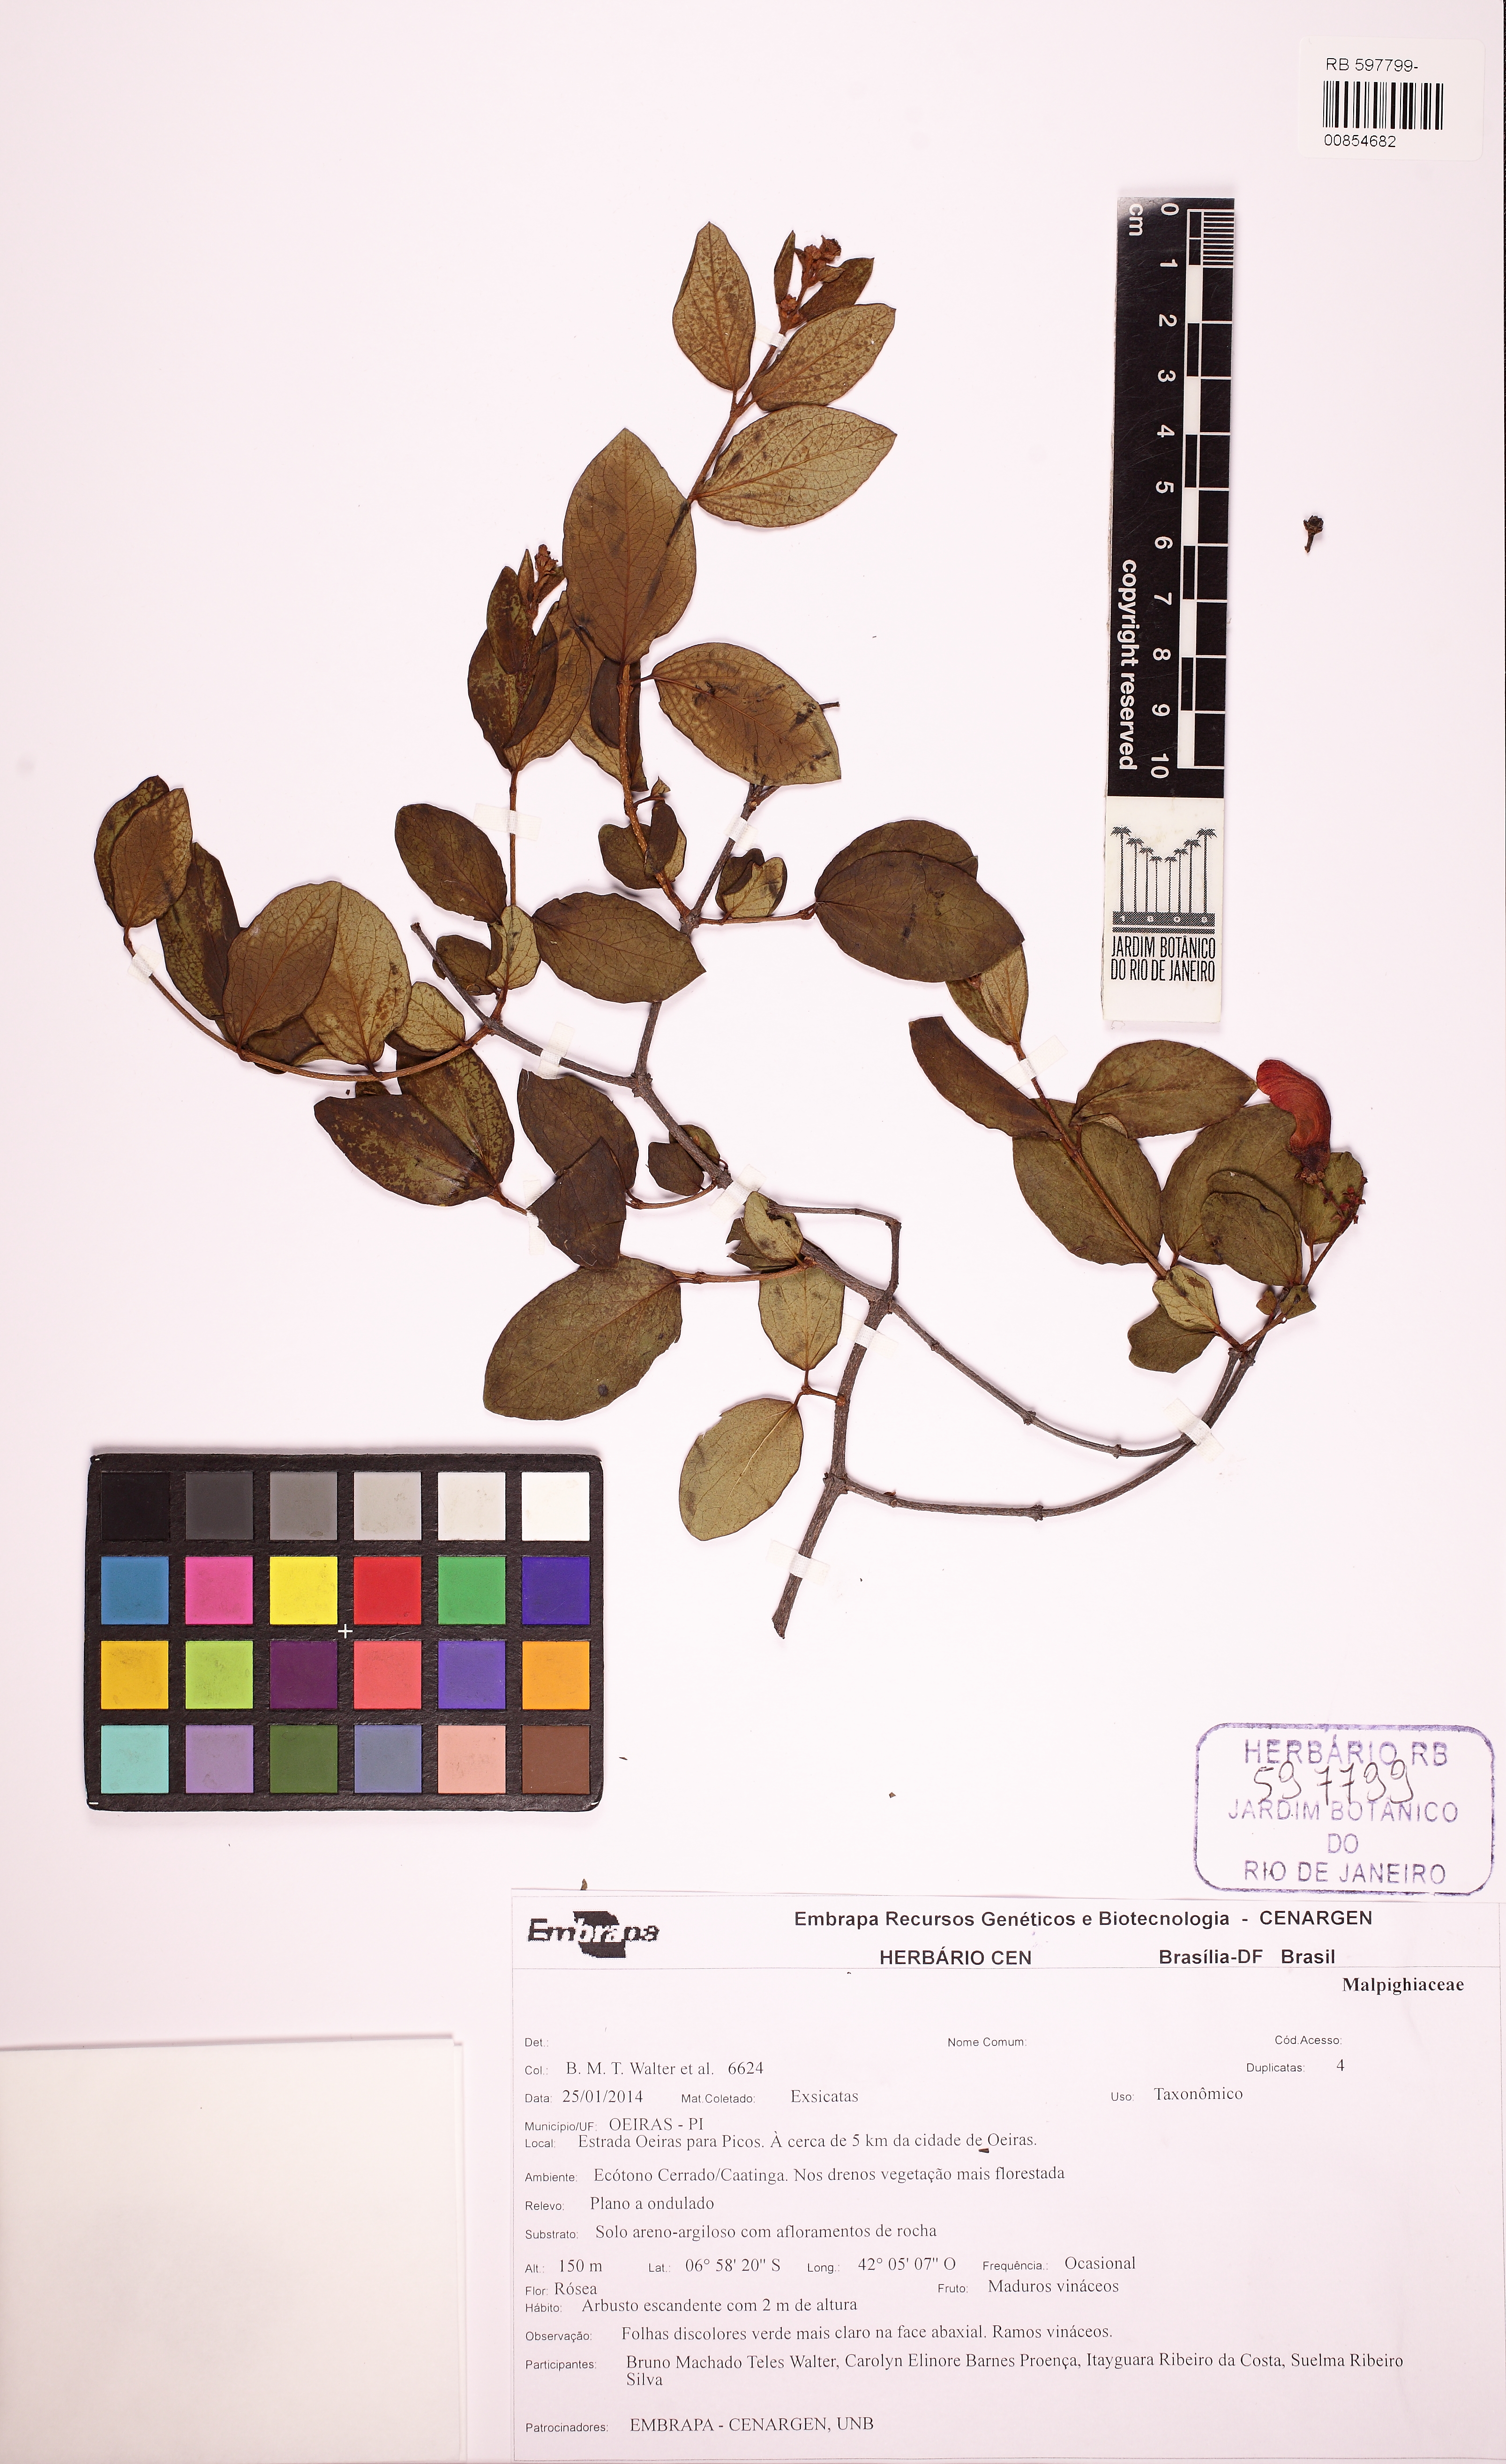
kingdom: Plantae
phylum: Tracheophyta
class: Magnoliopsida
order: Malpighiales
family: Malpighiaceae
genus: Heteropterys
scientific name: Heteropterys arcuata
